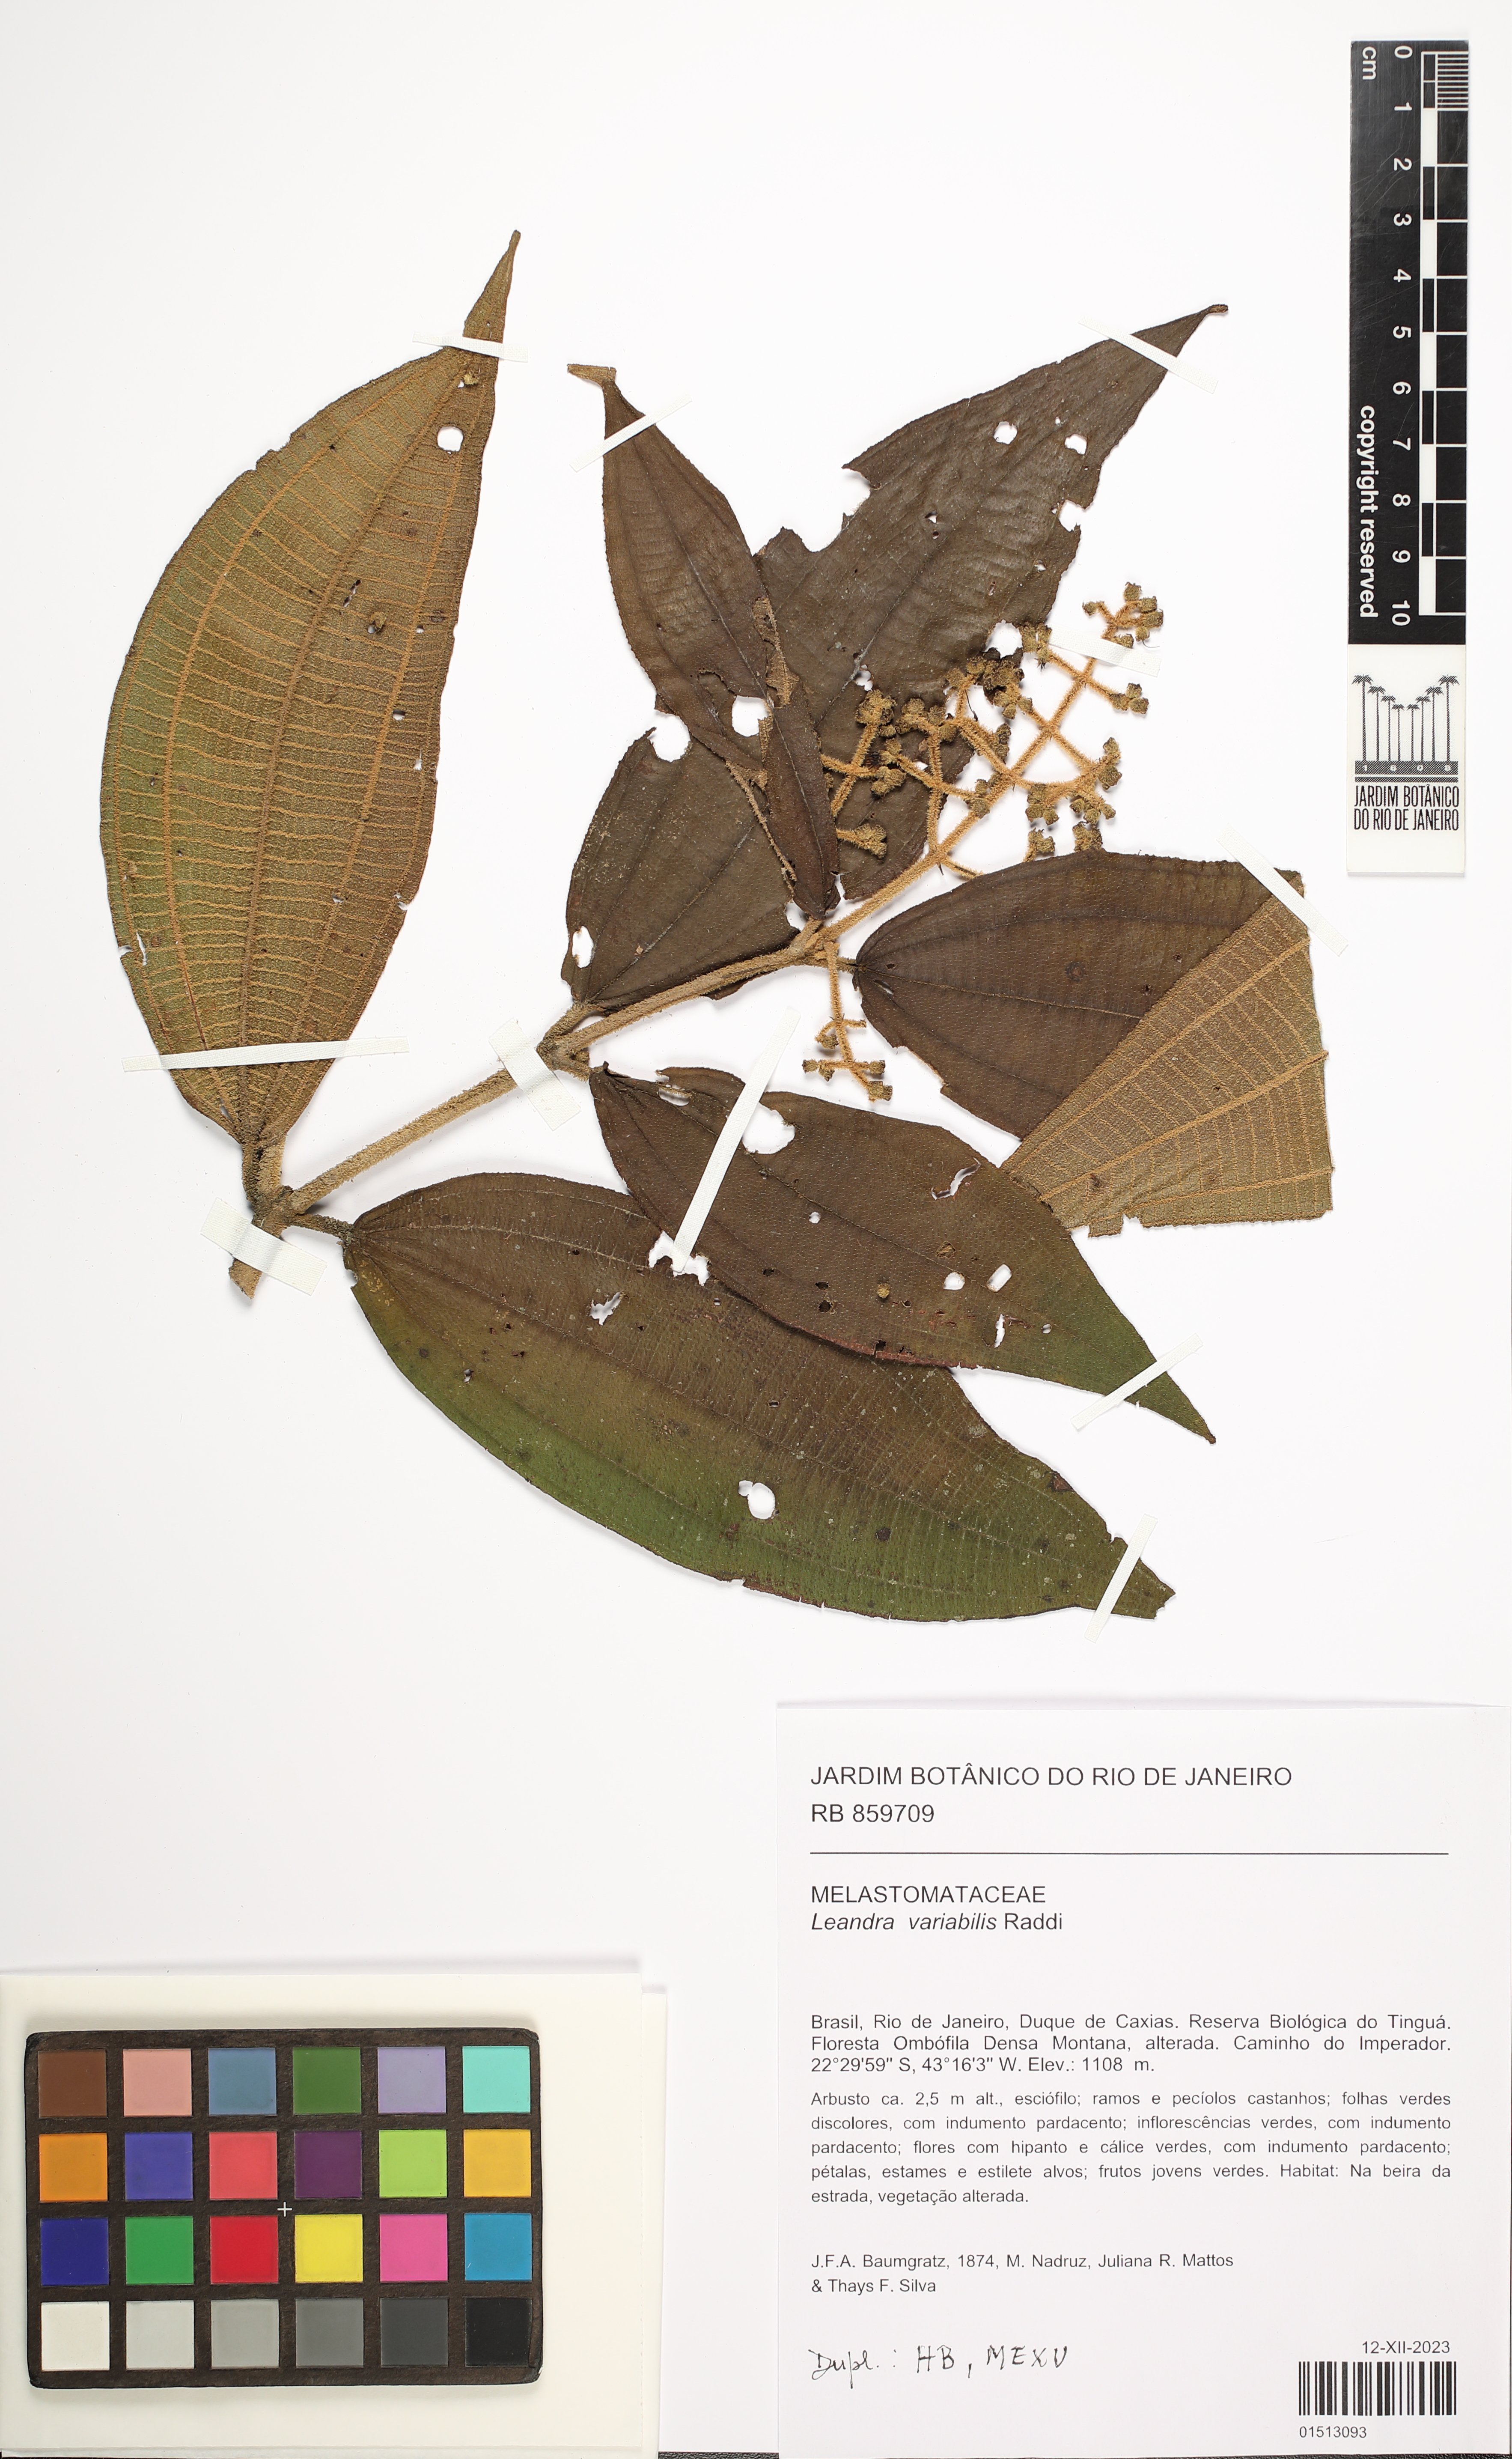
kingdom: Plantae
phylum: Tracheophyta
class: Magnoliopsida
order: Myrtales
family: Melastomataceae
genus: Miconia
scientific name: Miconia dasytricha
